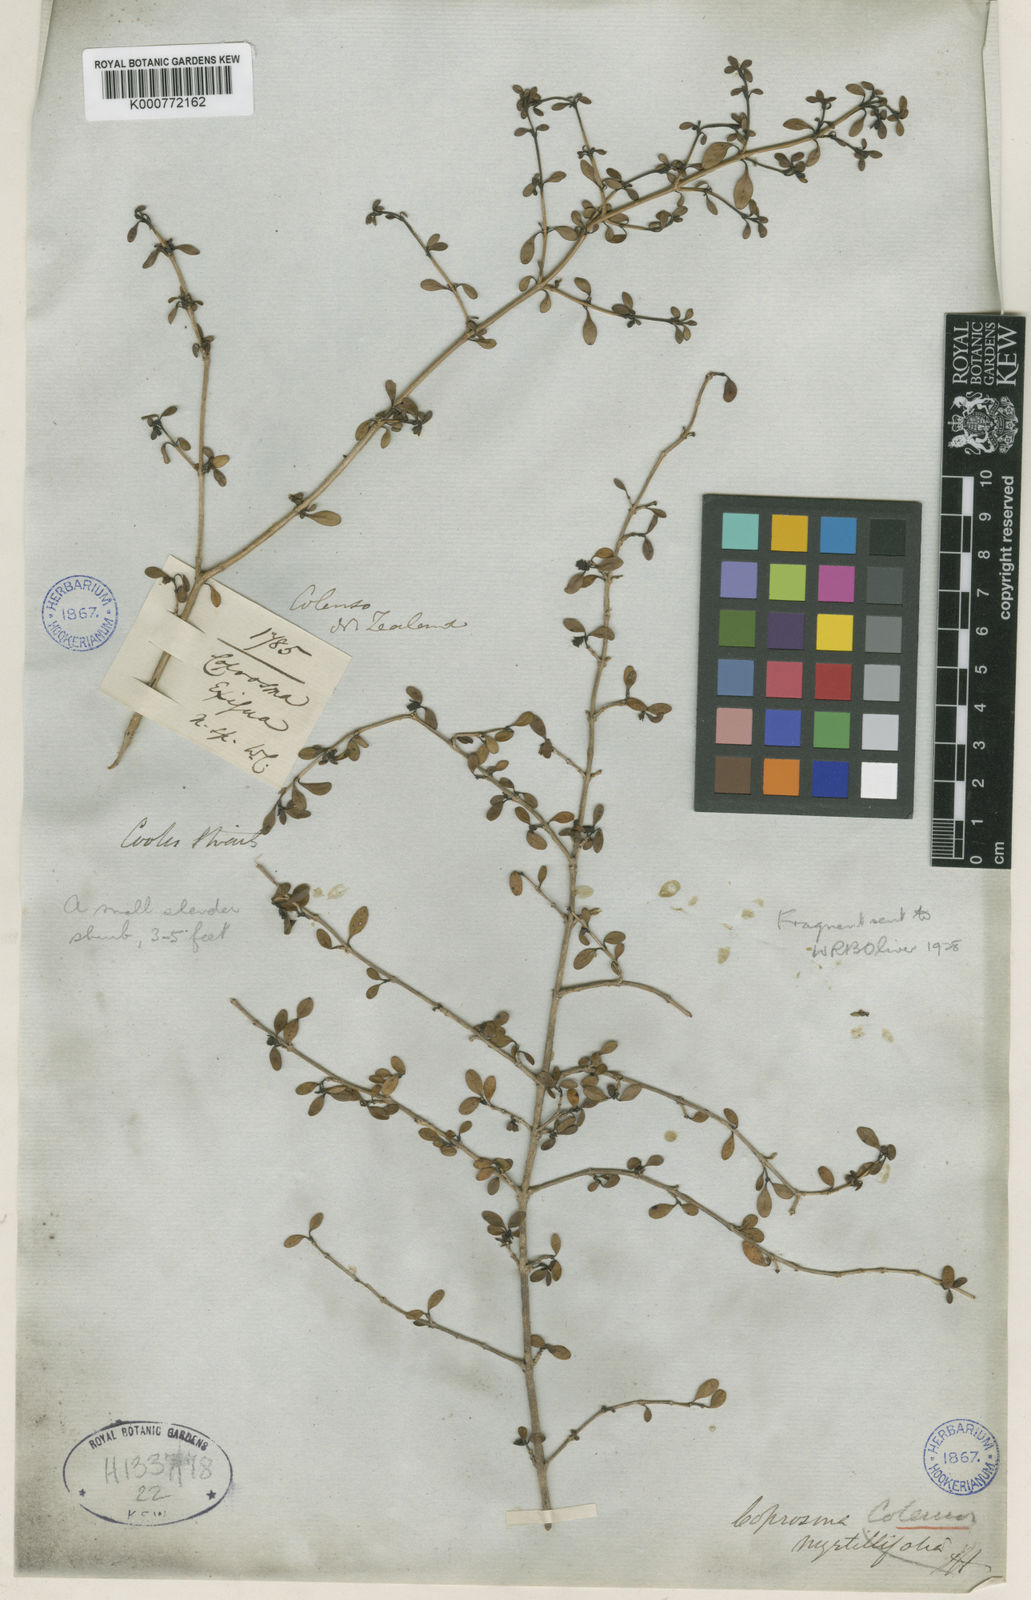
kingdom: Plantae
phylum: Tracheophyta
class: Magnoliopsida
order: Gentianales
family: Rubiaceae
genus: Coprosma
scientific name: Coprosma colensoi
